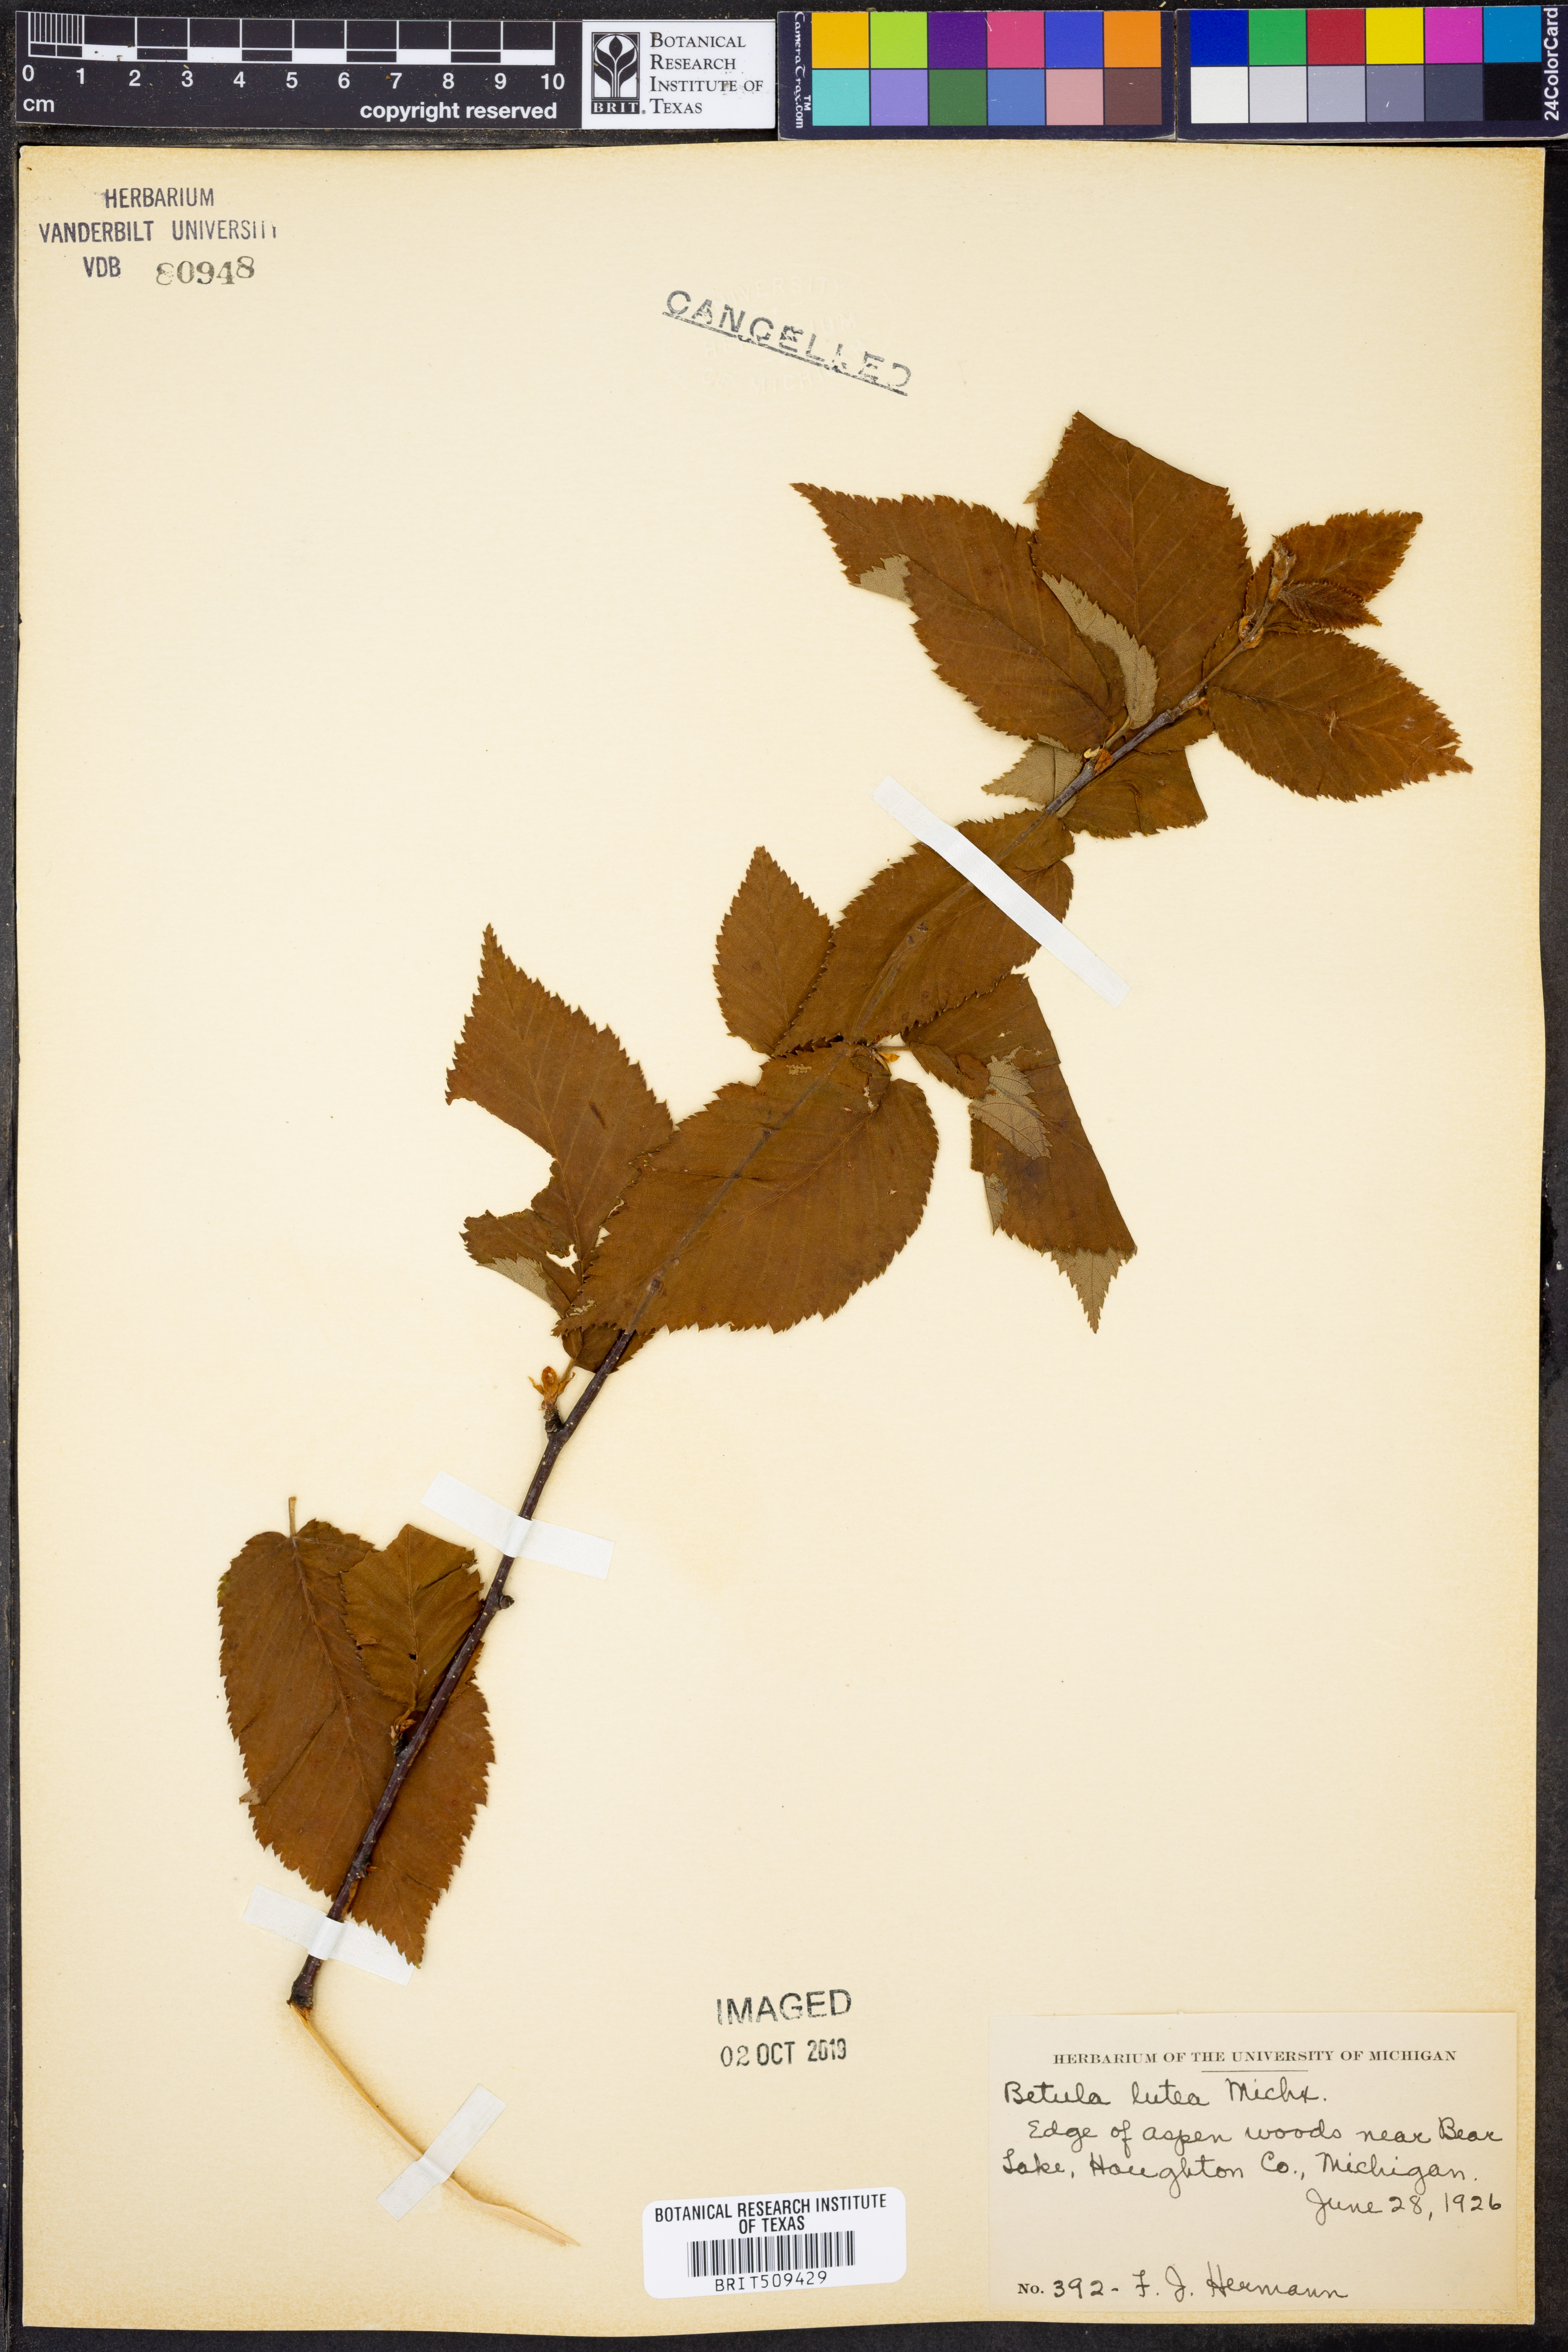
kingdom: Plantae
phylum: Tracheophyta
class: Magnoliopsida
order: Fagales
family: Betulaceae
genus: Betula
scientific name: Betula alleghaniensis
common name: Yellow birch
